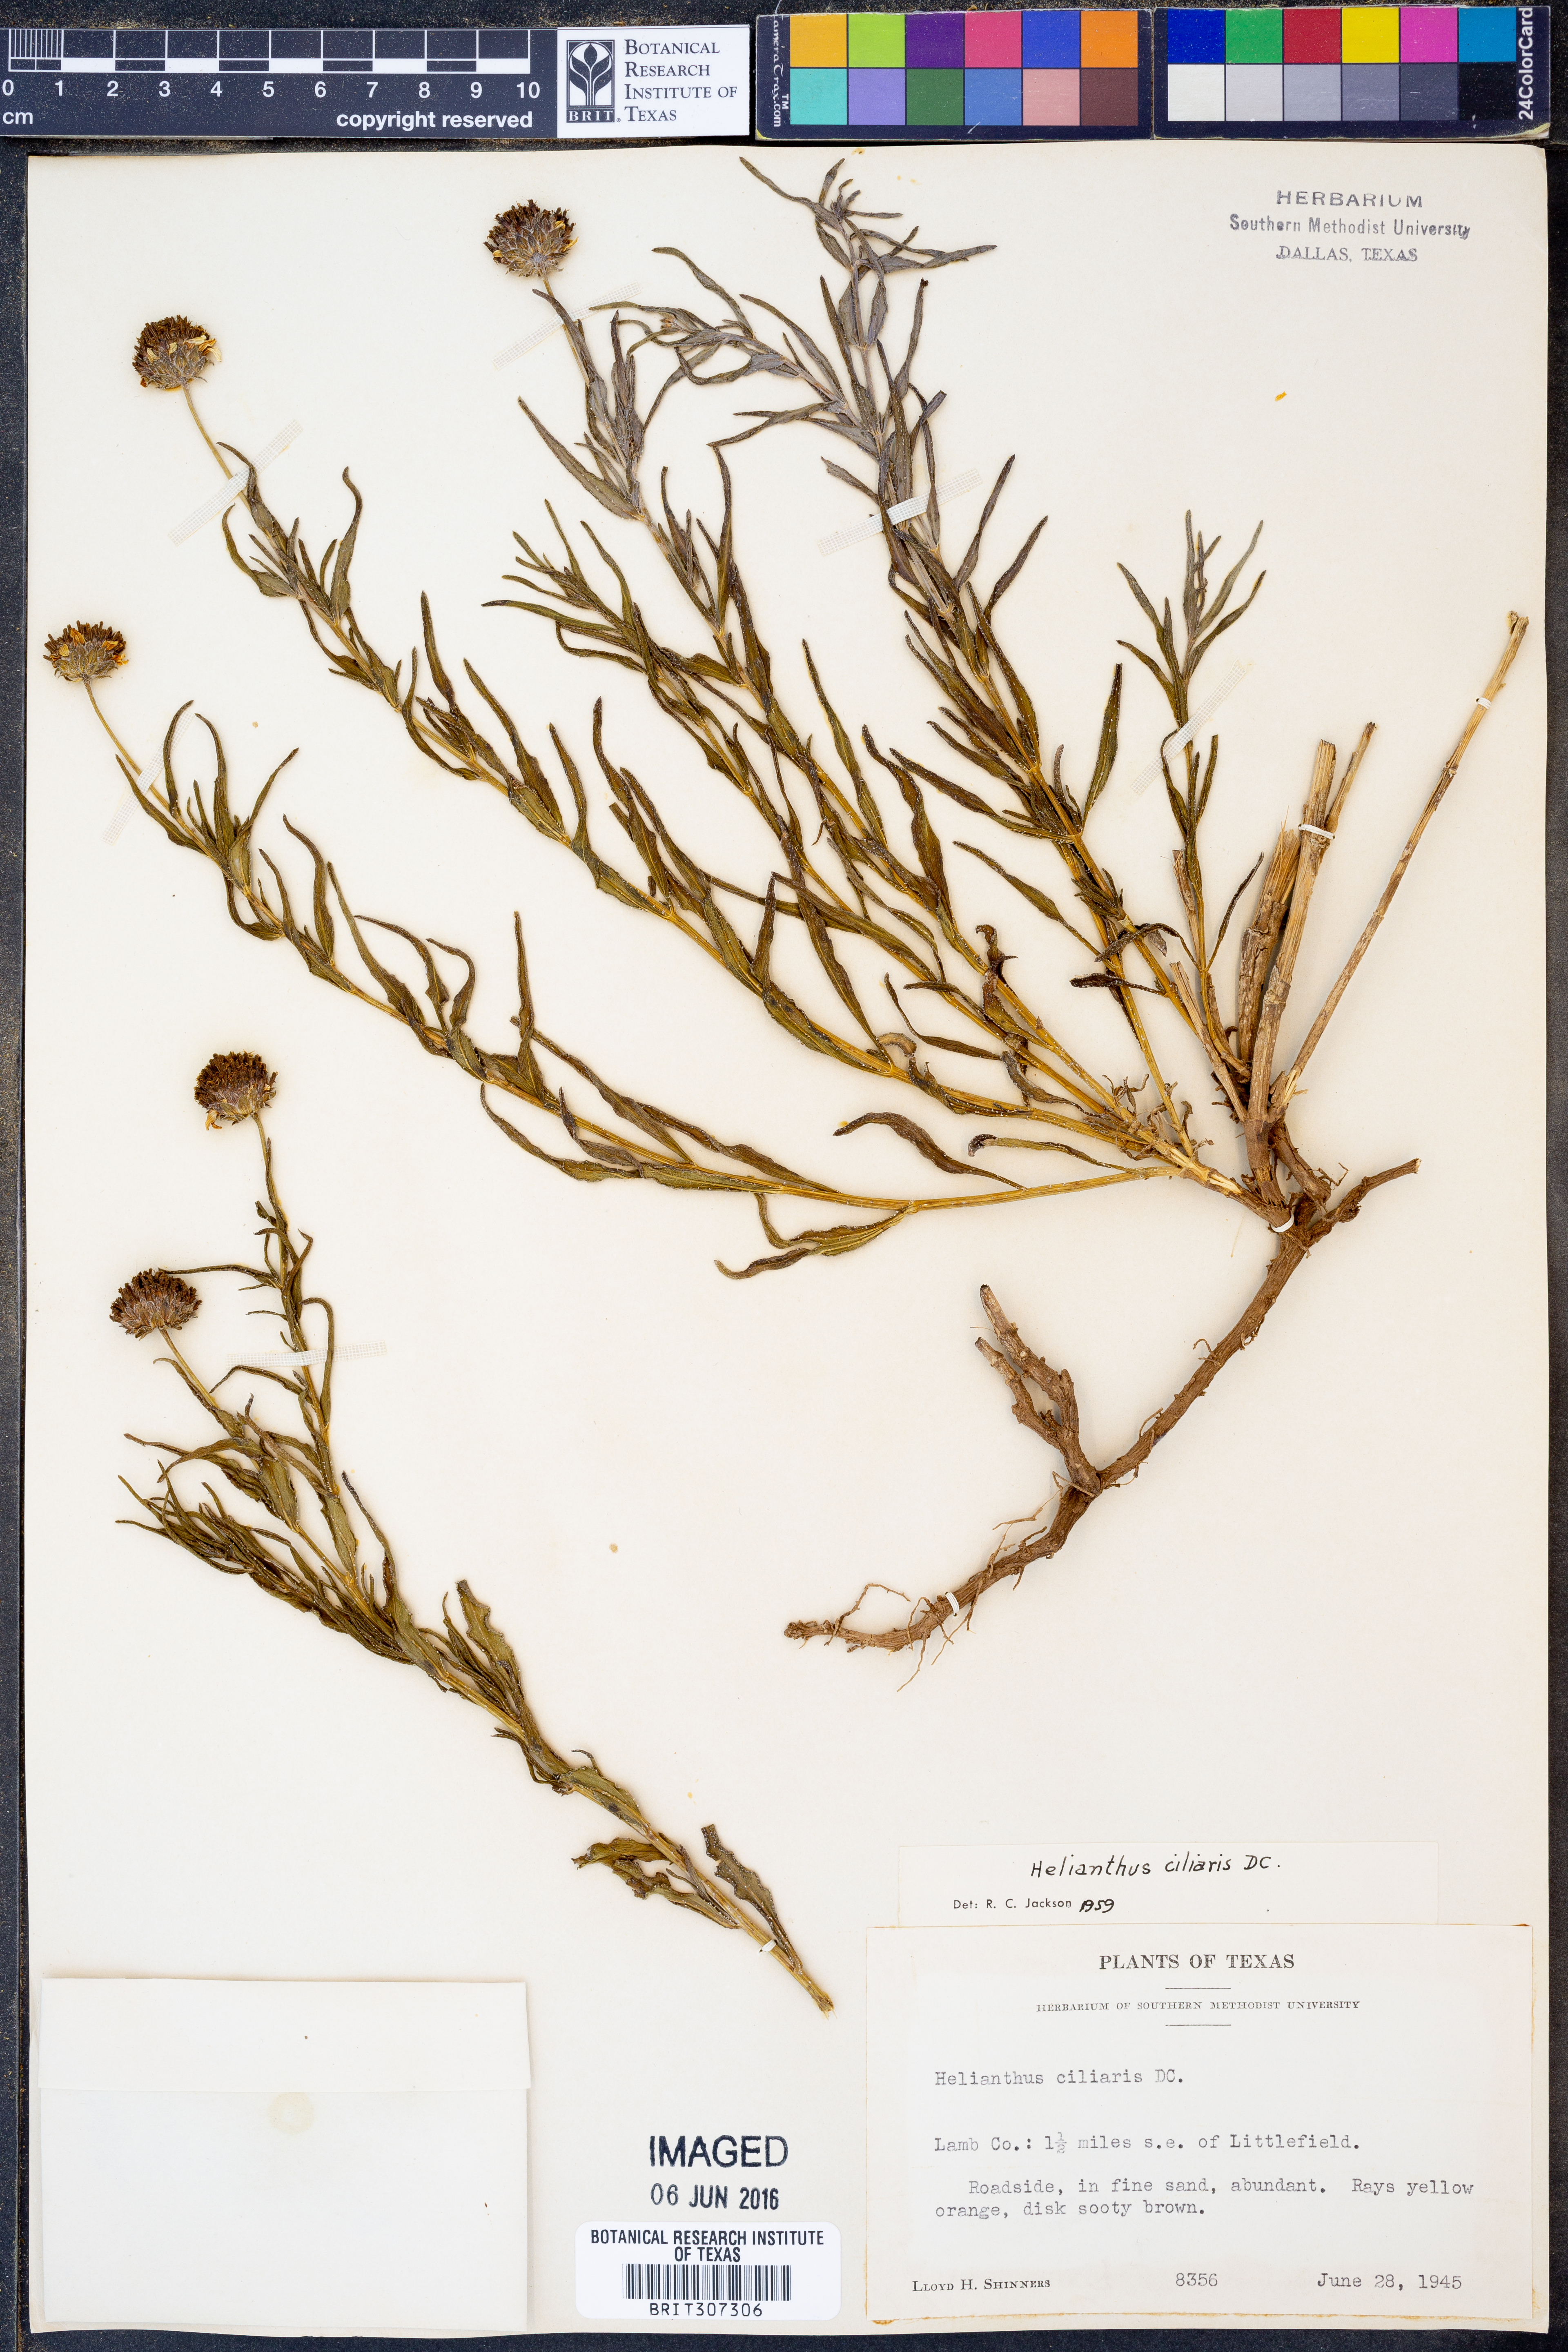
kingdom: Plantae
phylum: Tracheophyta
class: Magnoliopsida
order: Asterales
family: Asteraceae
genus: Helianthus
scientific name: Helianthus ciliaris
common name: Texas blueweed
